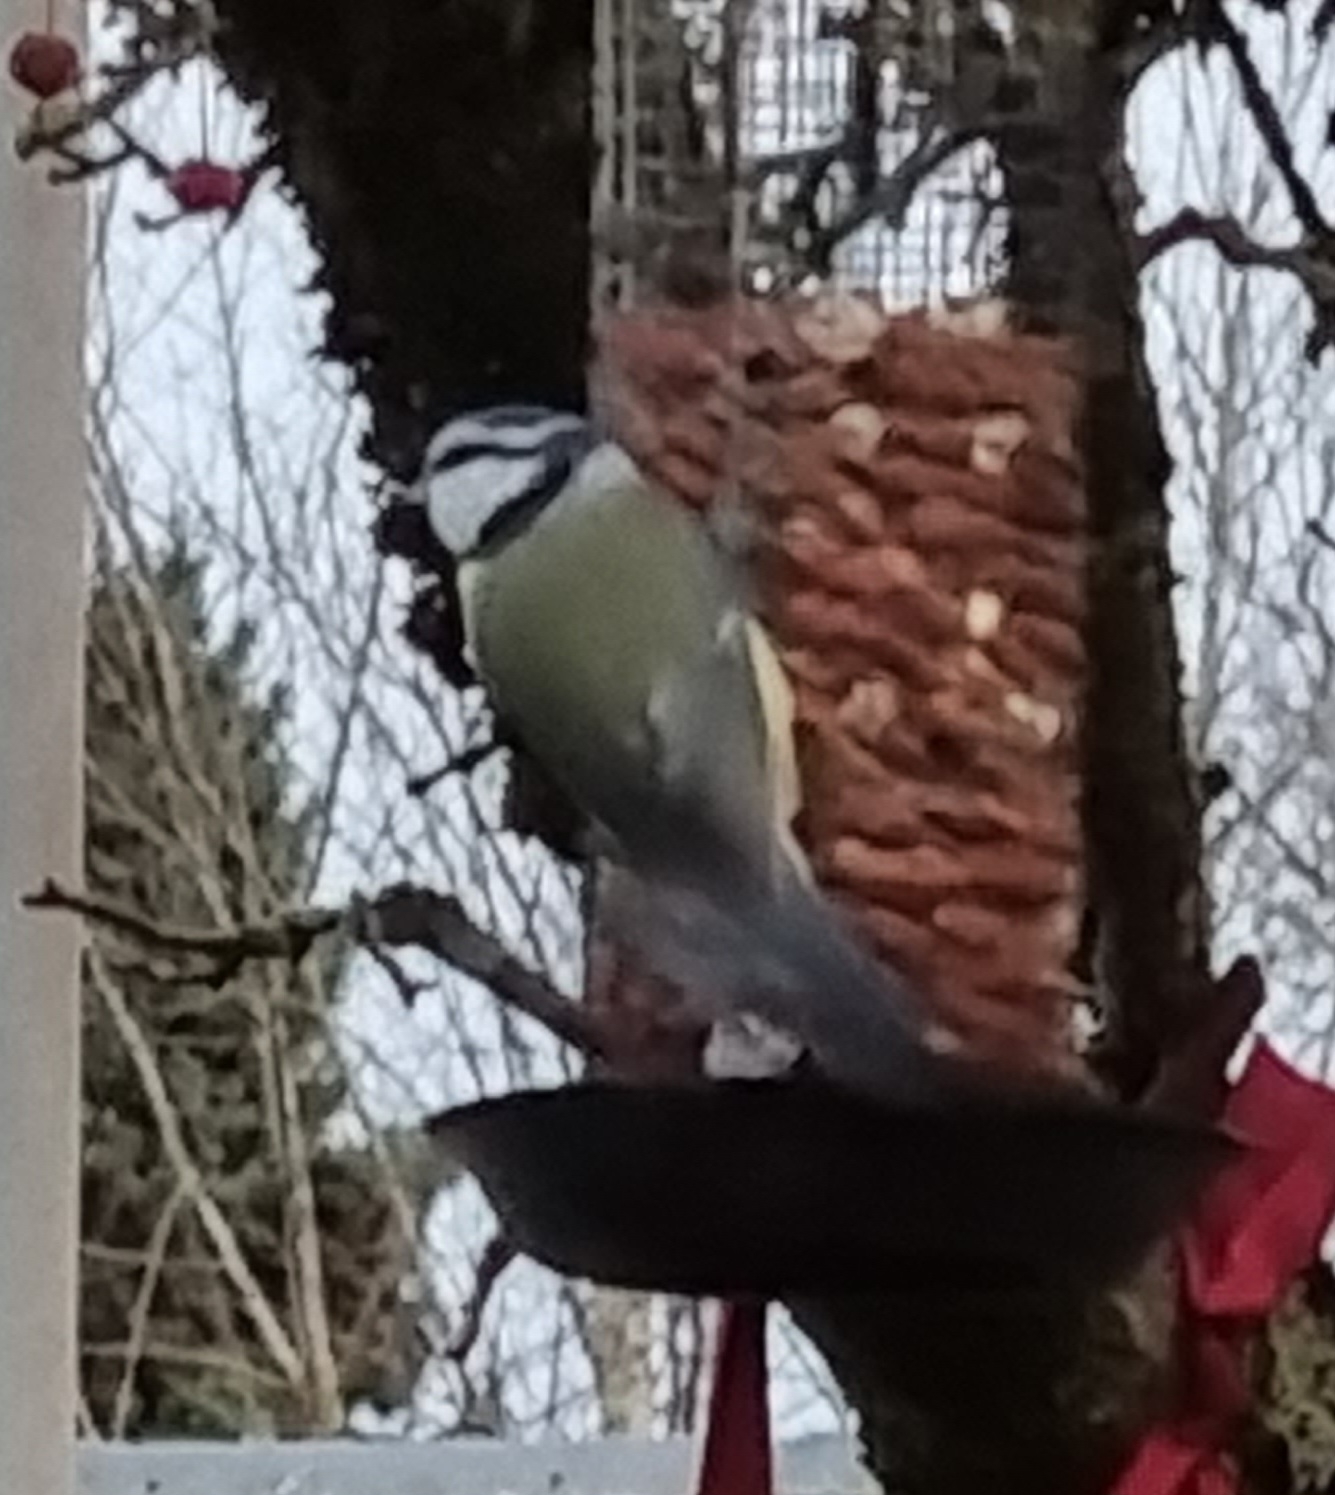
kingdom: Animalia
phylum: Chordata
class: Aves
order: Passeriformes
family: Paridae
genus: Cyanistes
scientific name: Cyanistes caeruleus
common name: Blåmejse
